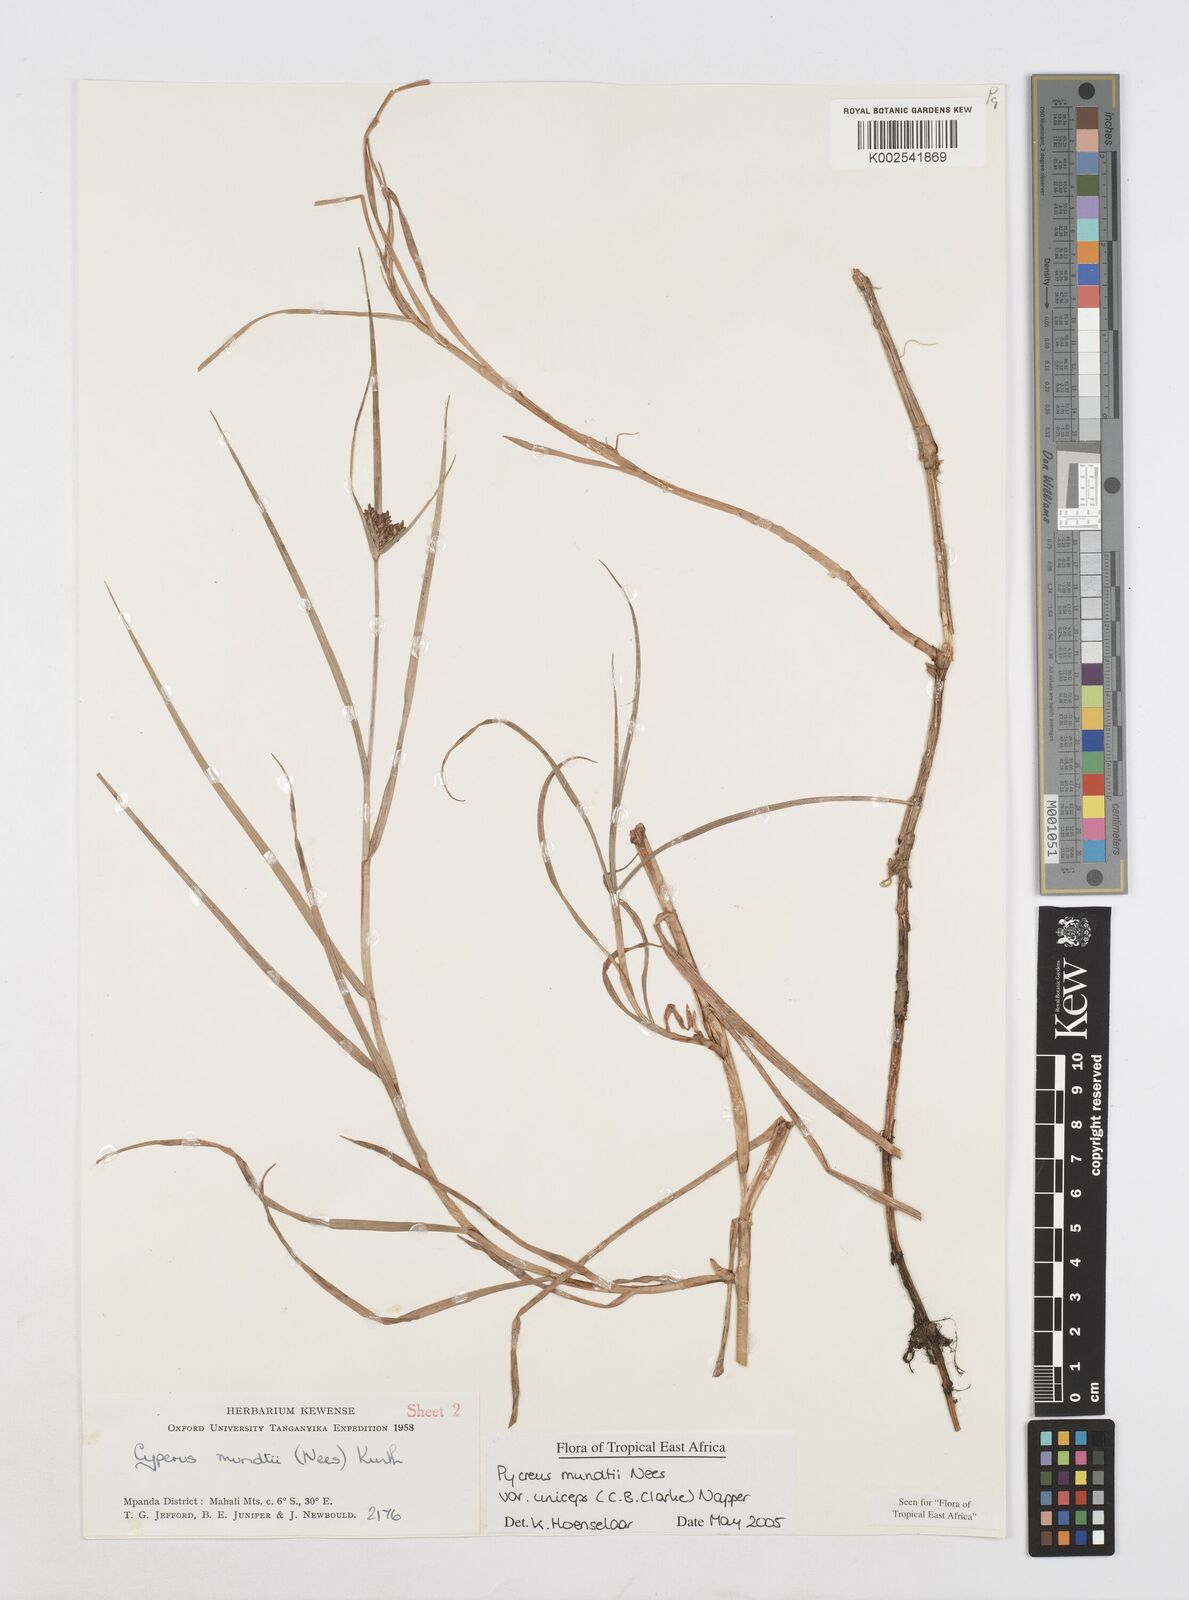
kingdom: Plantae
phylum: Tracheophyta
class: Liliopsida
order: Poales
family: Cyperaceae
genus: Cyperus
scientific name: Cyperus mundii
